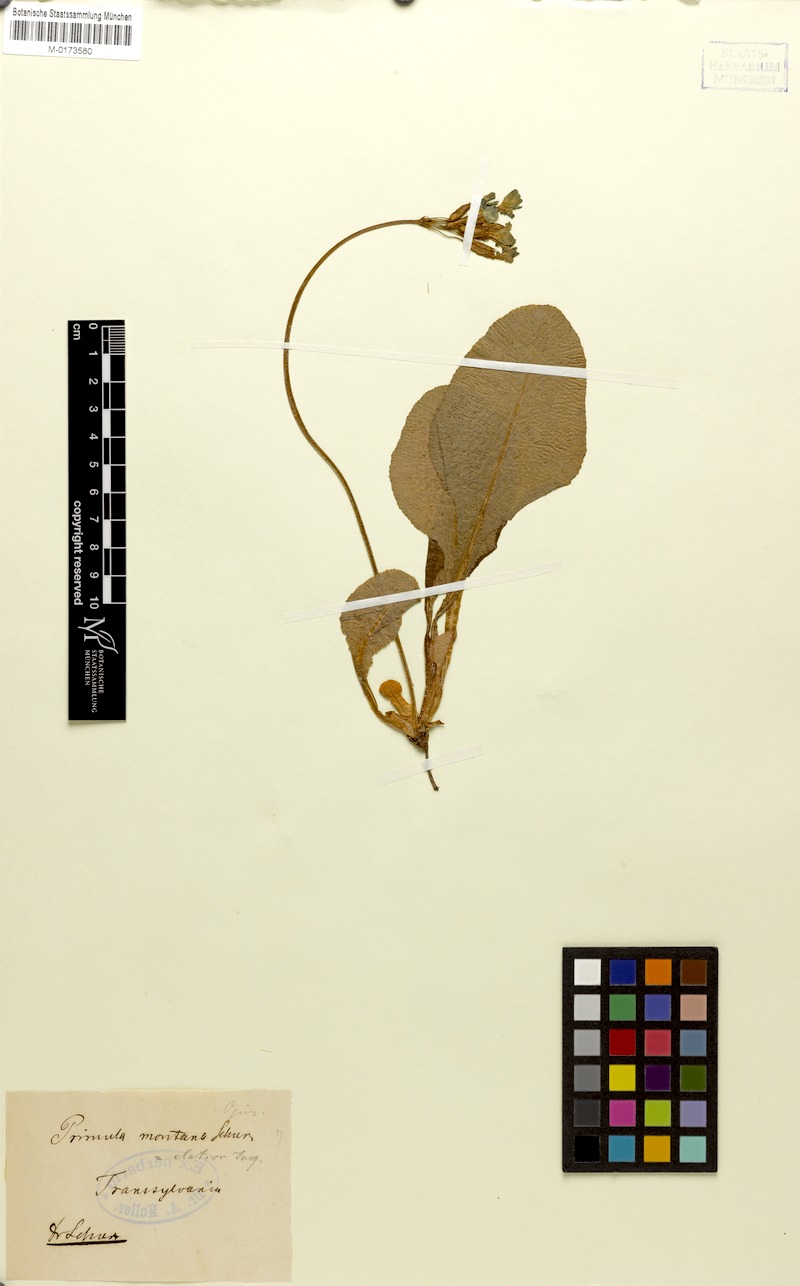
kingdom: Plantae
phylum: Tracheophyta
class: Magnoliopsida
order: Ericales
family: Primulaceae
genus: Primula
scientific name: Primula elatior
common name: Oxlip
